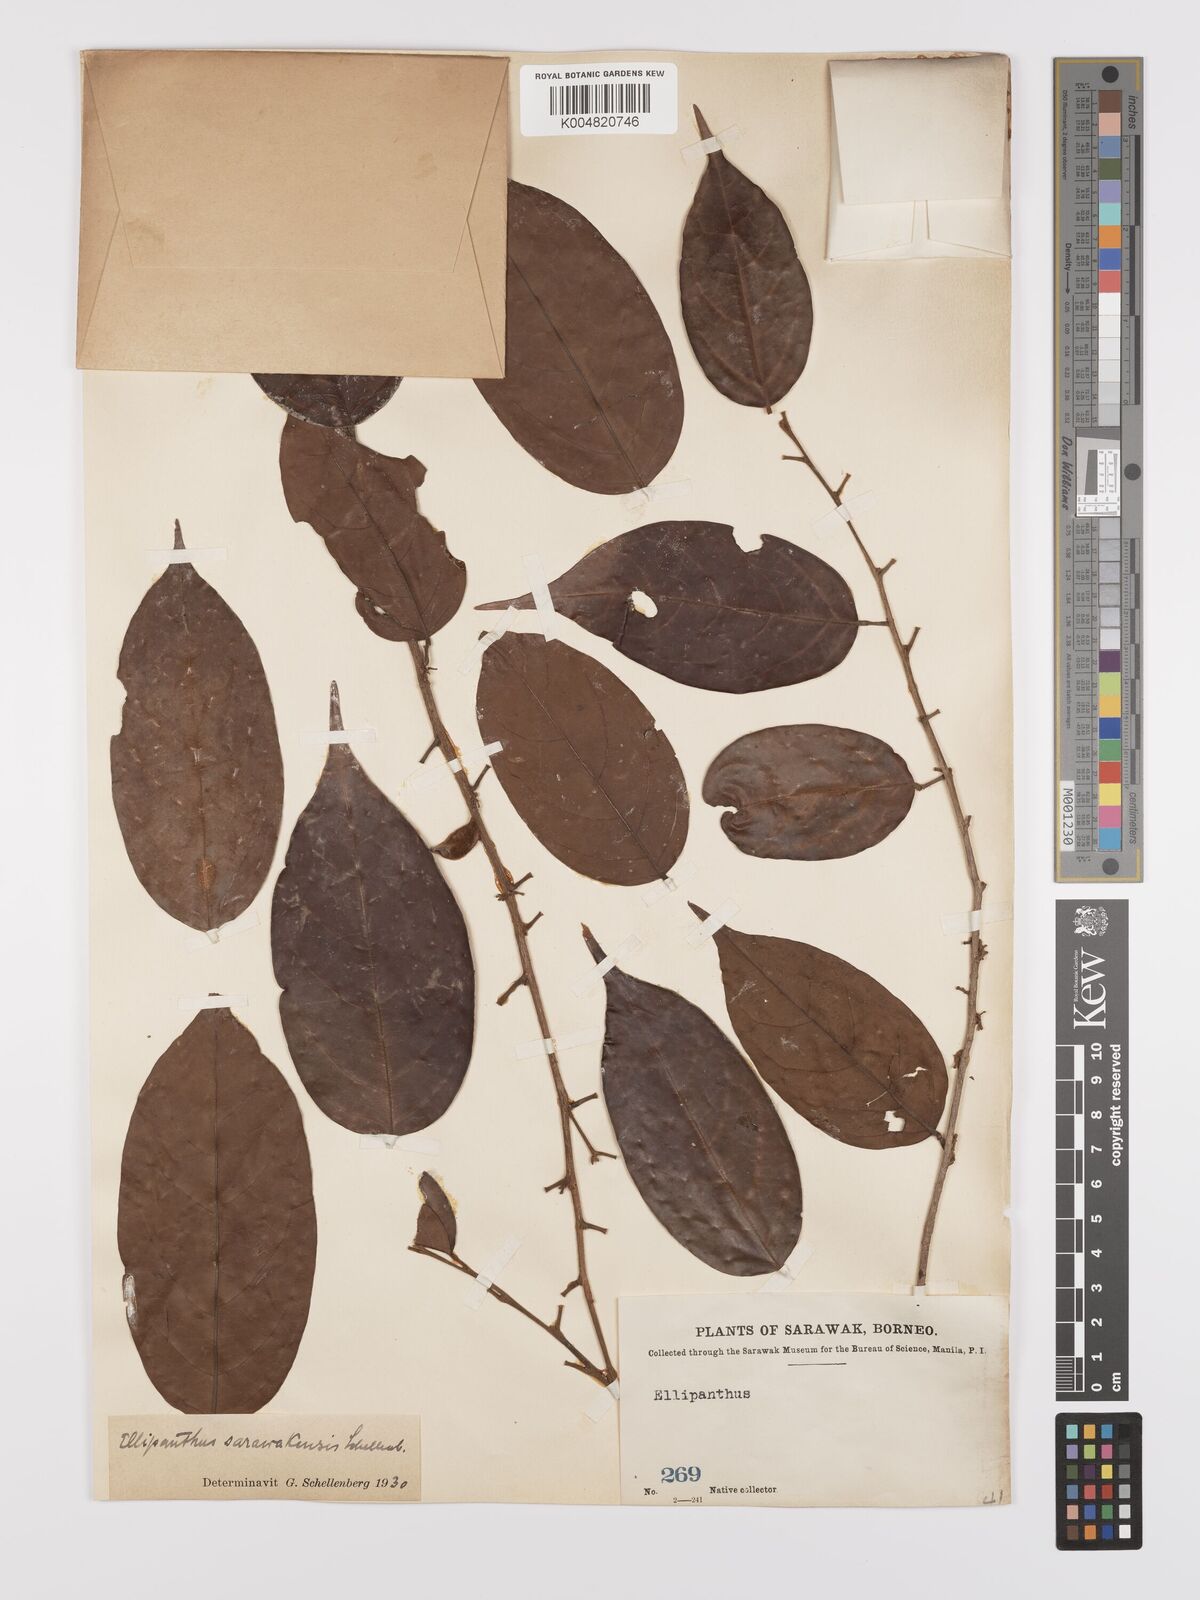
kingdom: Plantae
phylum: Tracheophyta
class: Magnoliopsida
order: Oxalidales
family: Connaraceae
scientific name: Connaraceae
